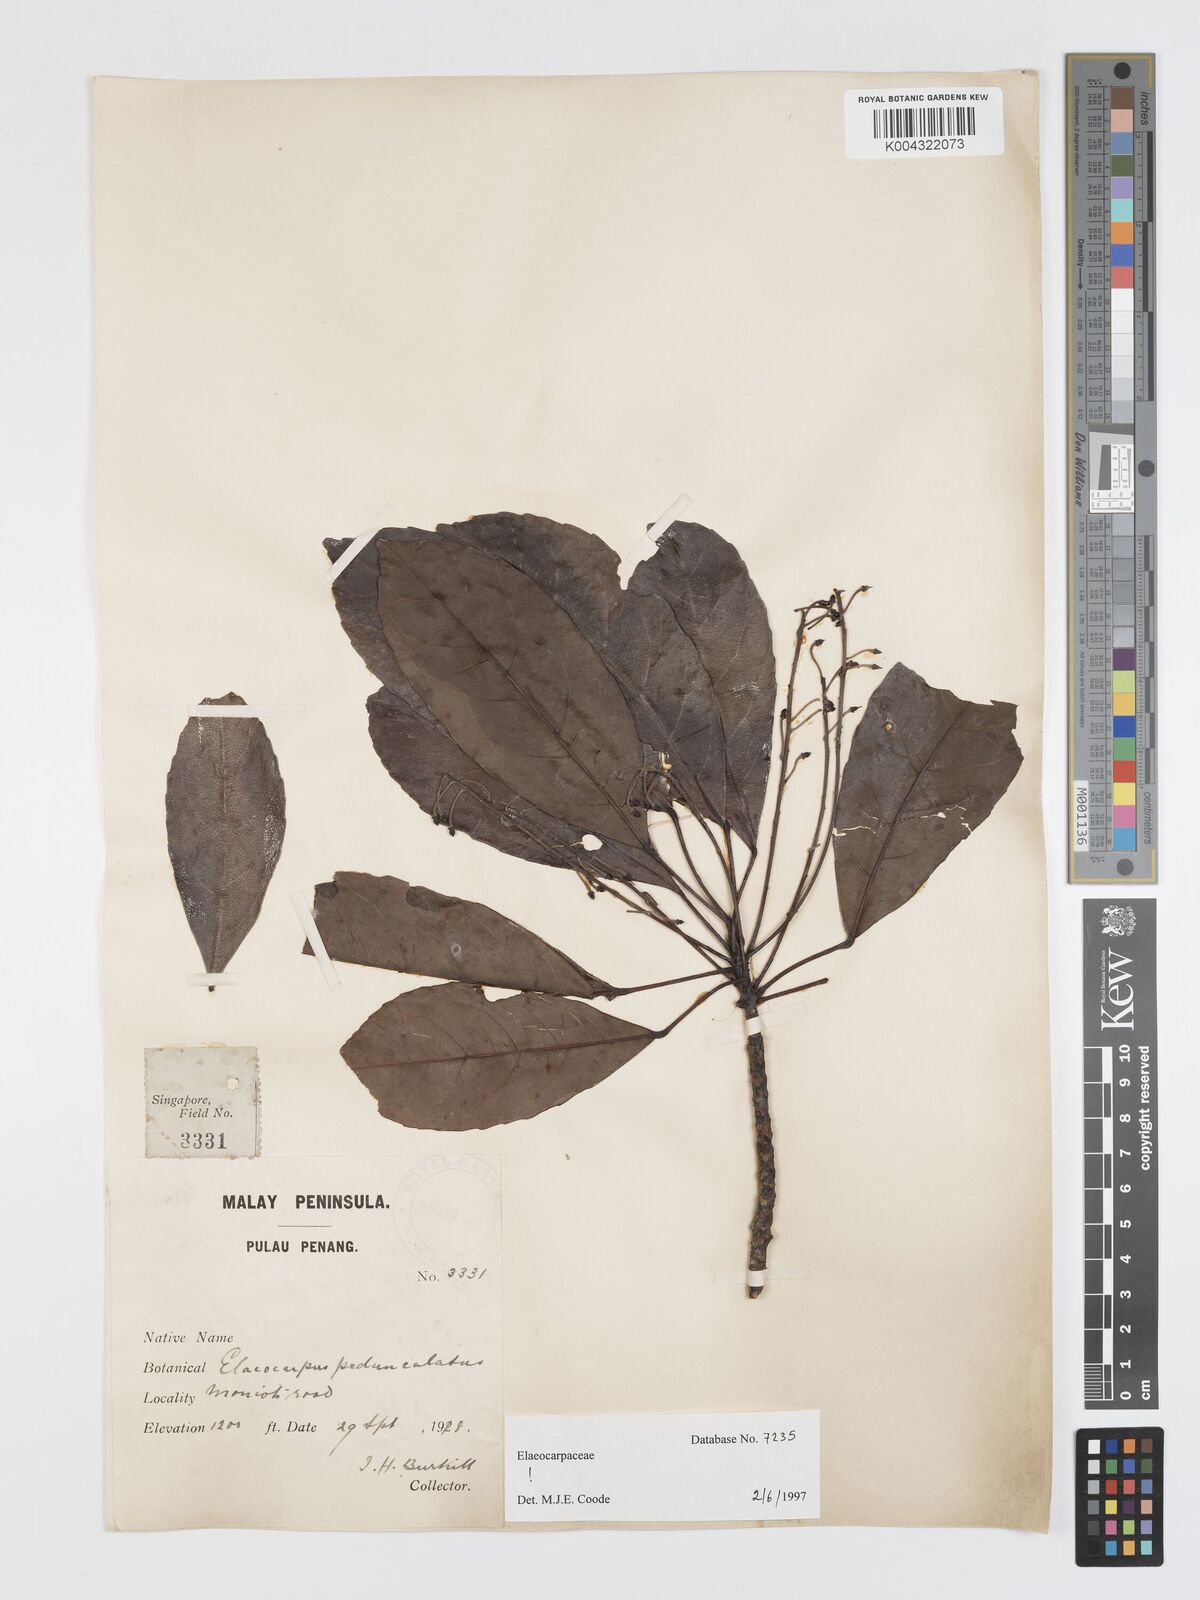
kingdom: Plantae
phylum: Tracheophyta
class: Magnoliopsida
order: Oxalidales
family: Elaeocarpaceae
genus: Elaeocarpus
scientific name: Elaeocarpus pedunculatus
